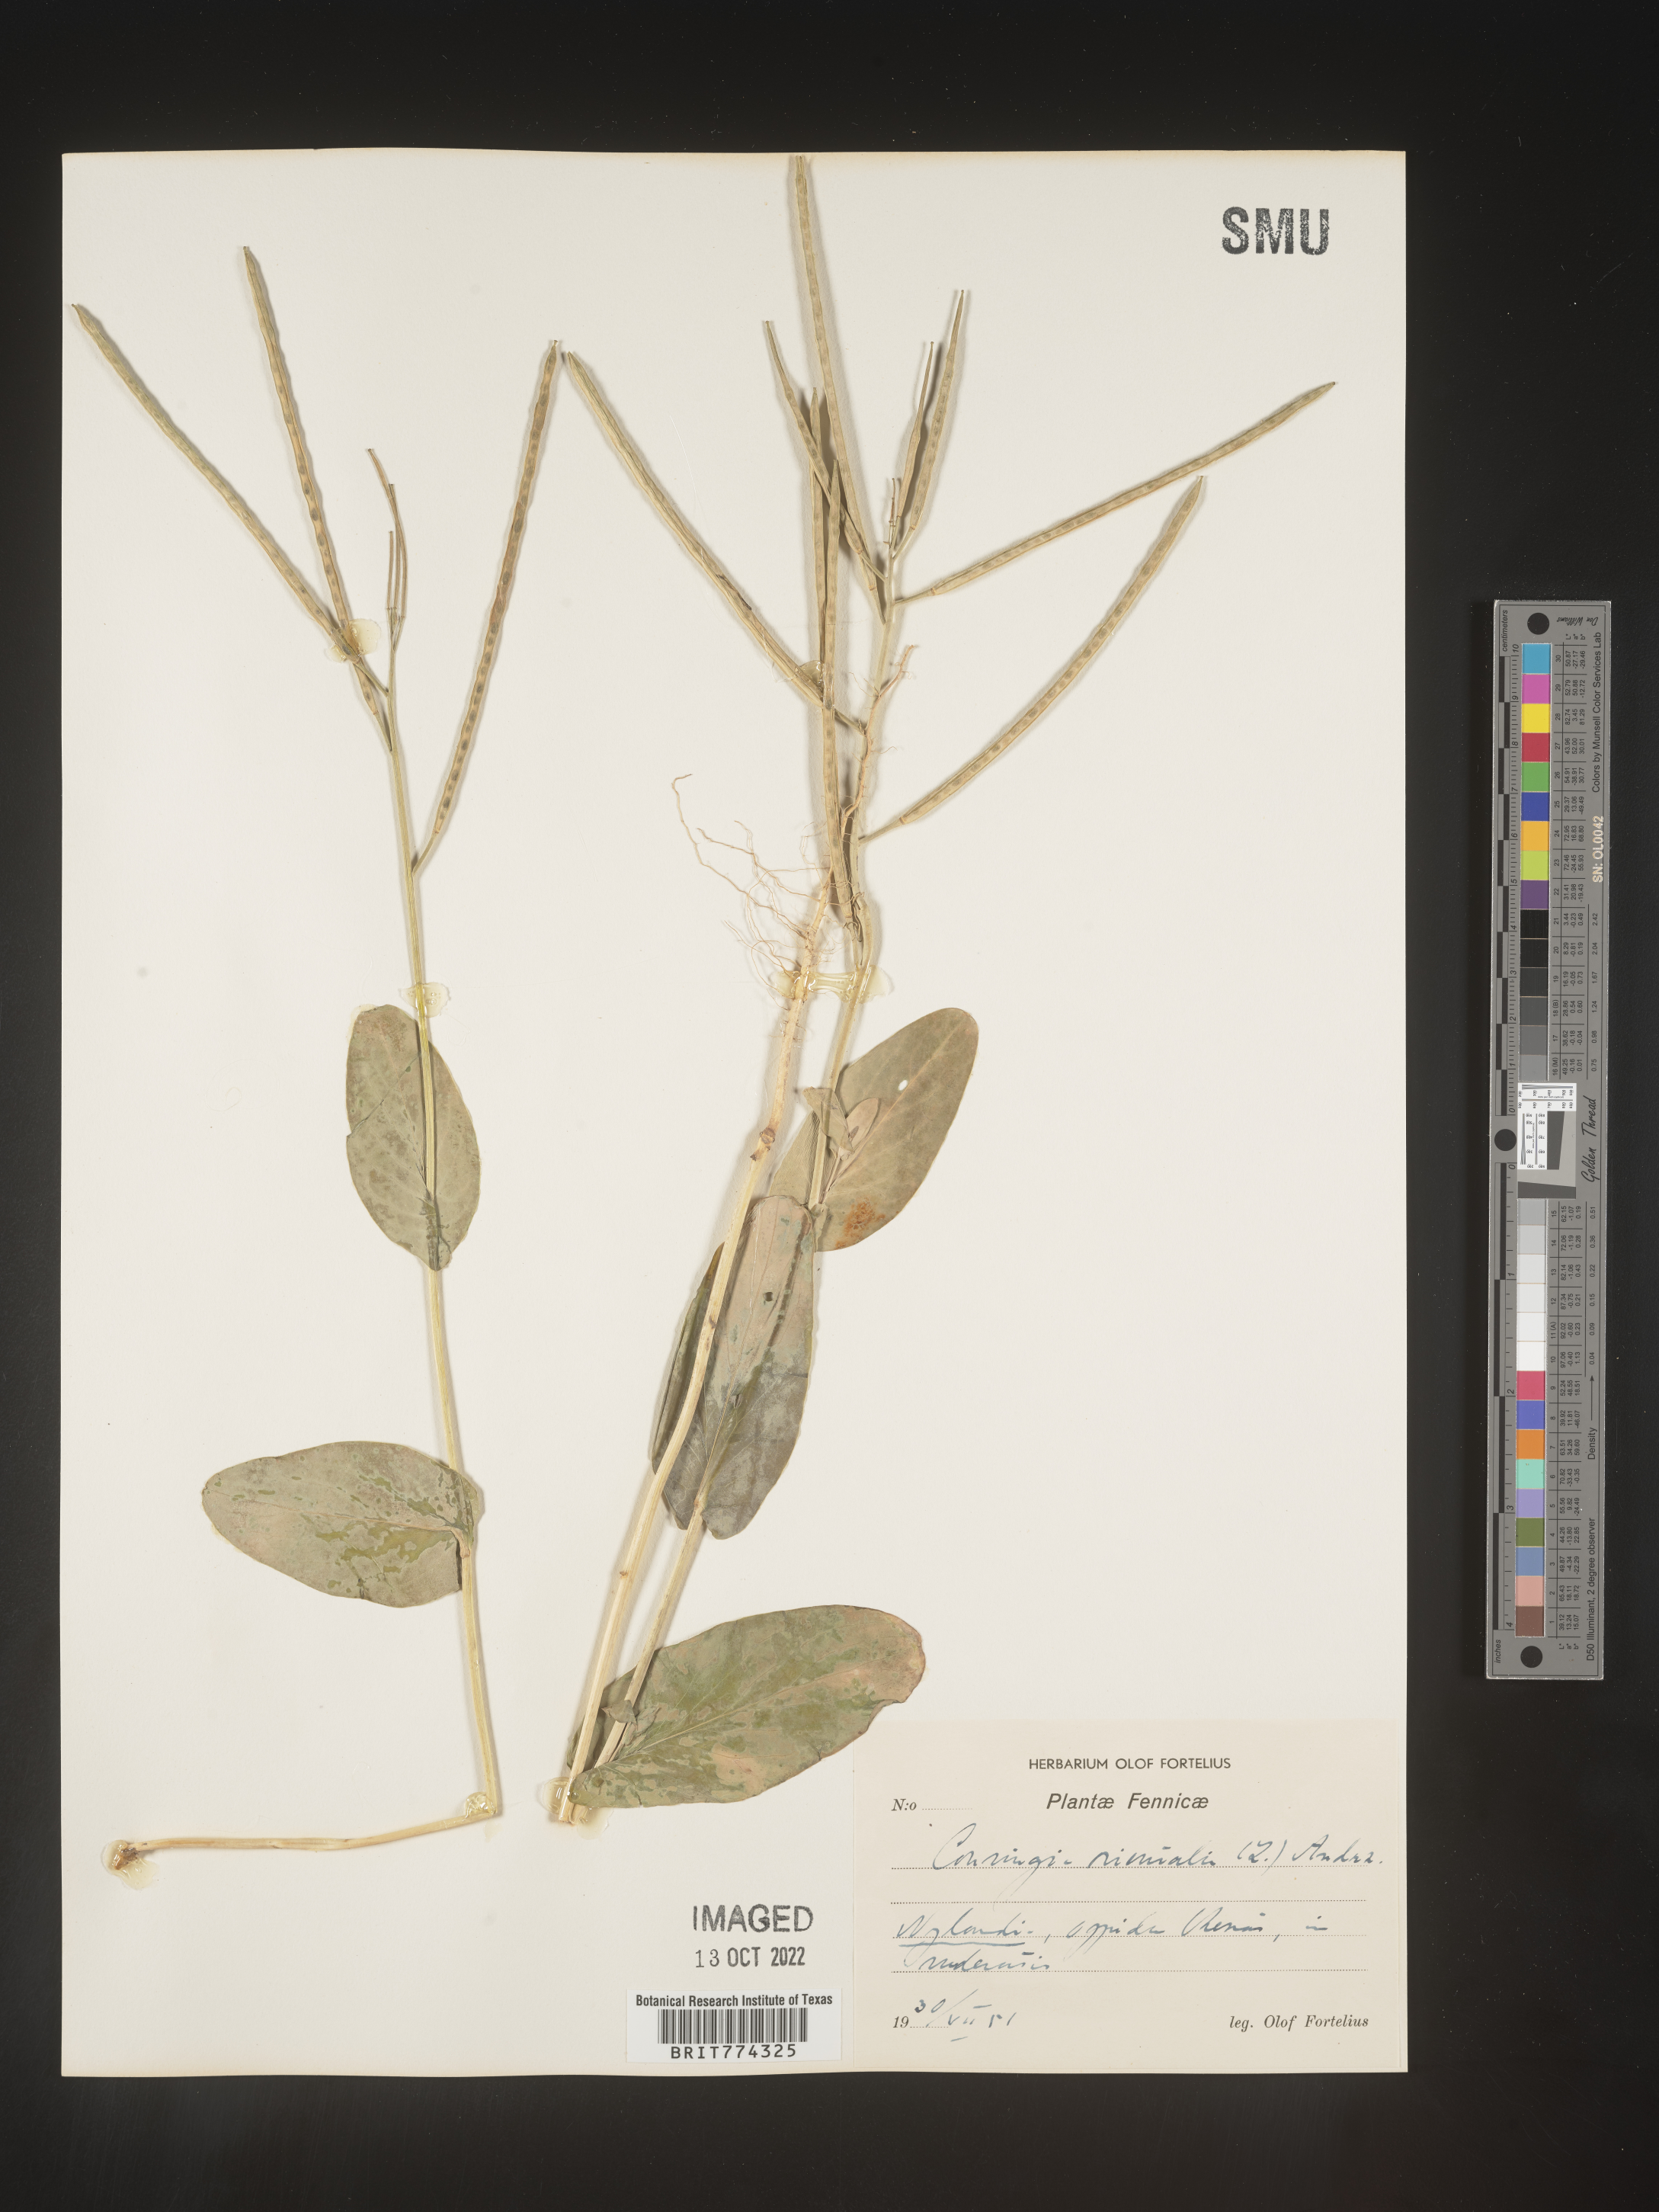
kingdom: Plantae
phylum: Tracheophyta
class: Magnoliopsida
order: Brassicales
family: Brassicaceae
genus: Conringia
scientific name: Conringia
